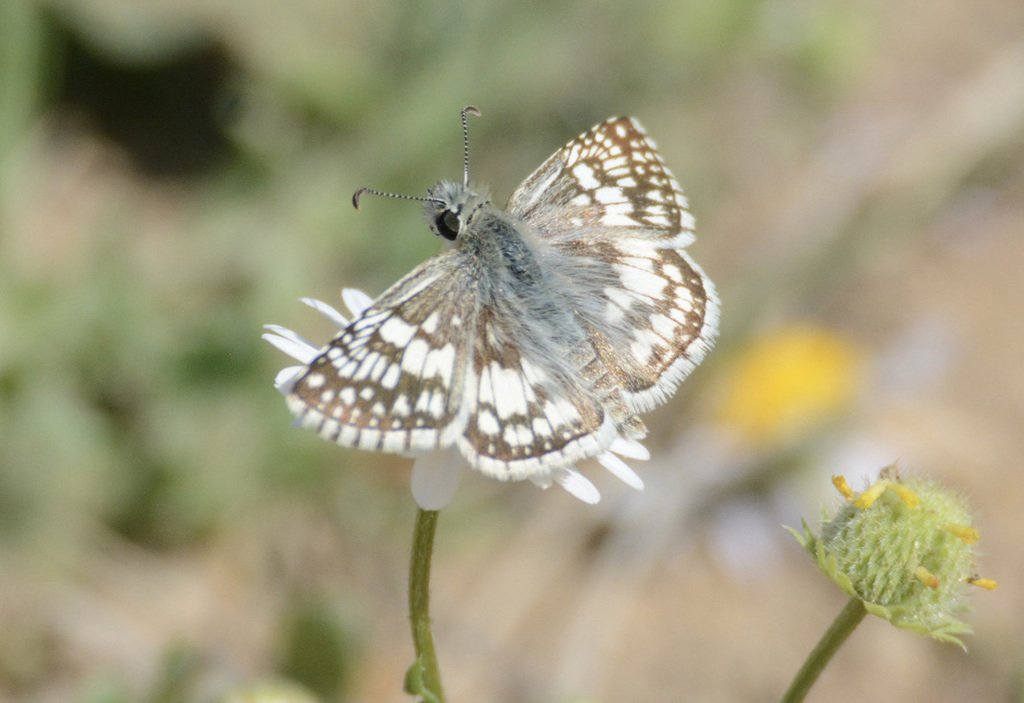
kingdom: Animalia
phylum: Arthropoda
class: Insecta
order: Lepidoptera
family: Hesperiidae
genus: Pyrgus
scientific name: Pyrgus communis
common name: Common Checkered-Skipper
